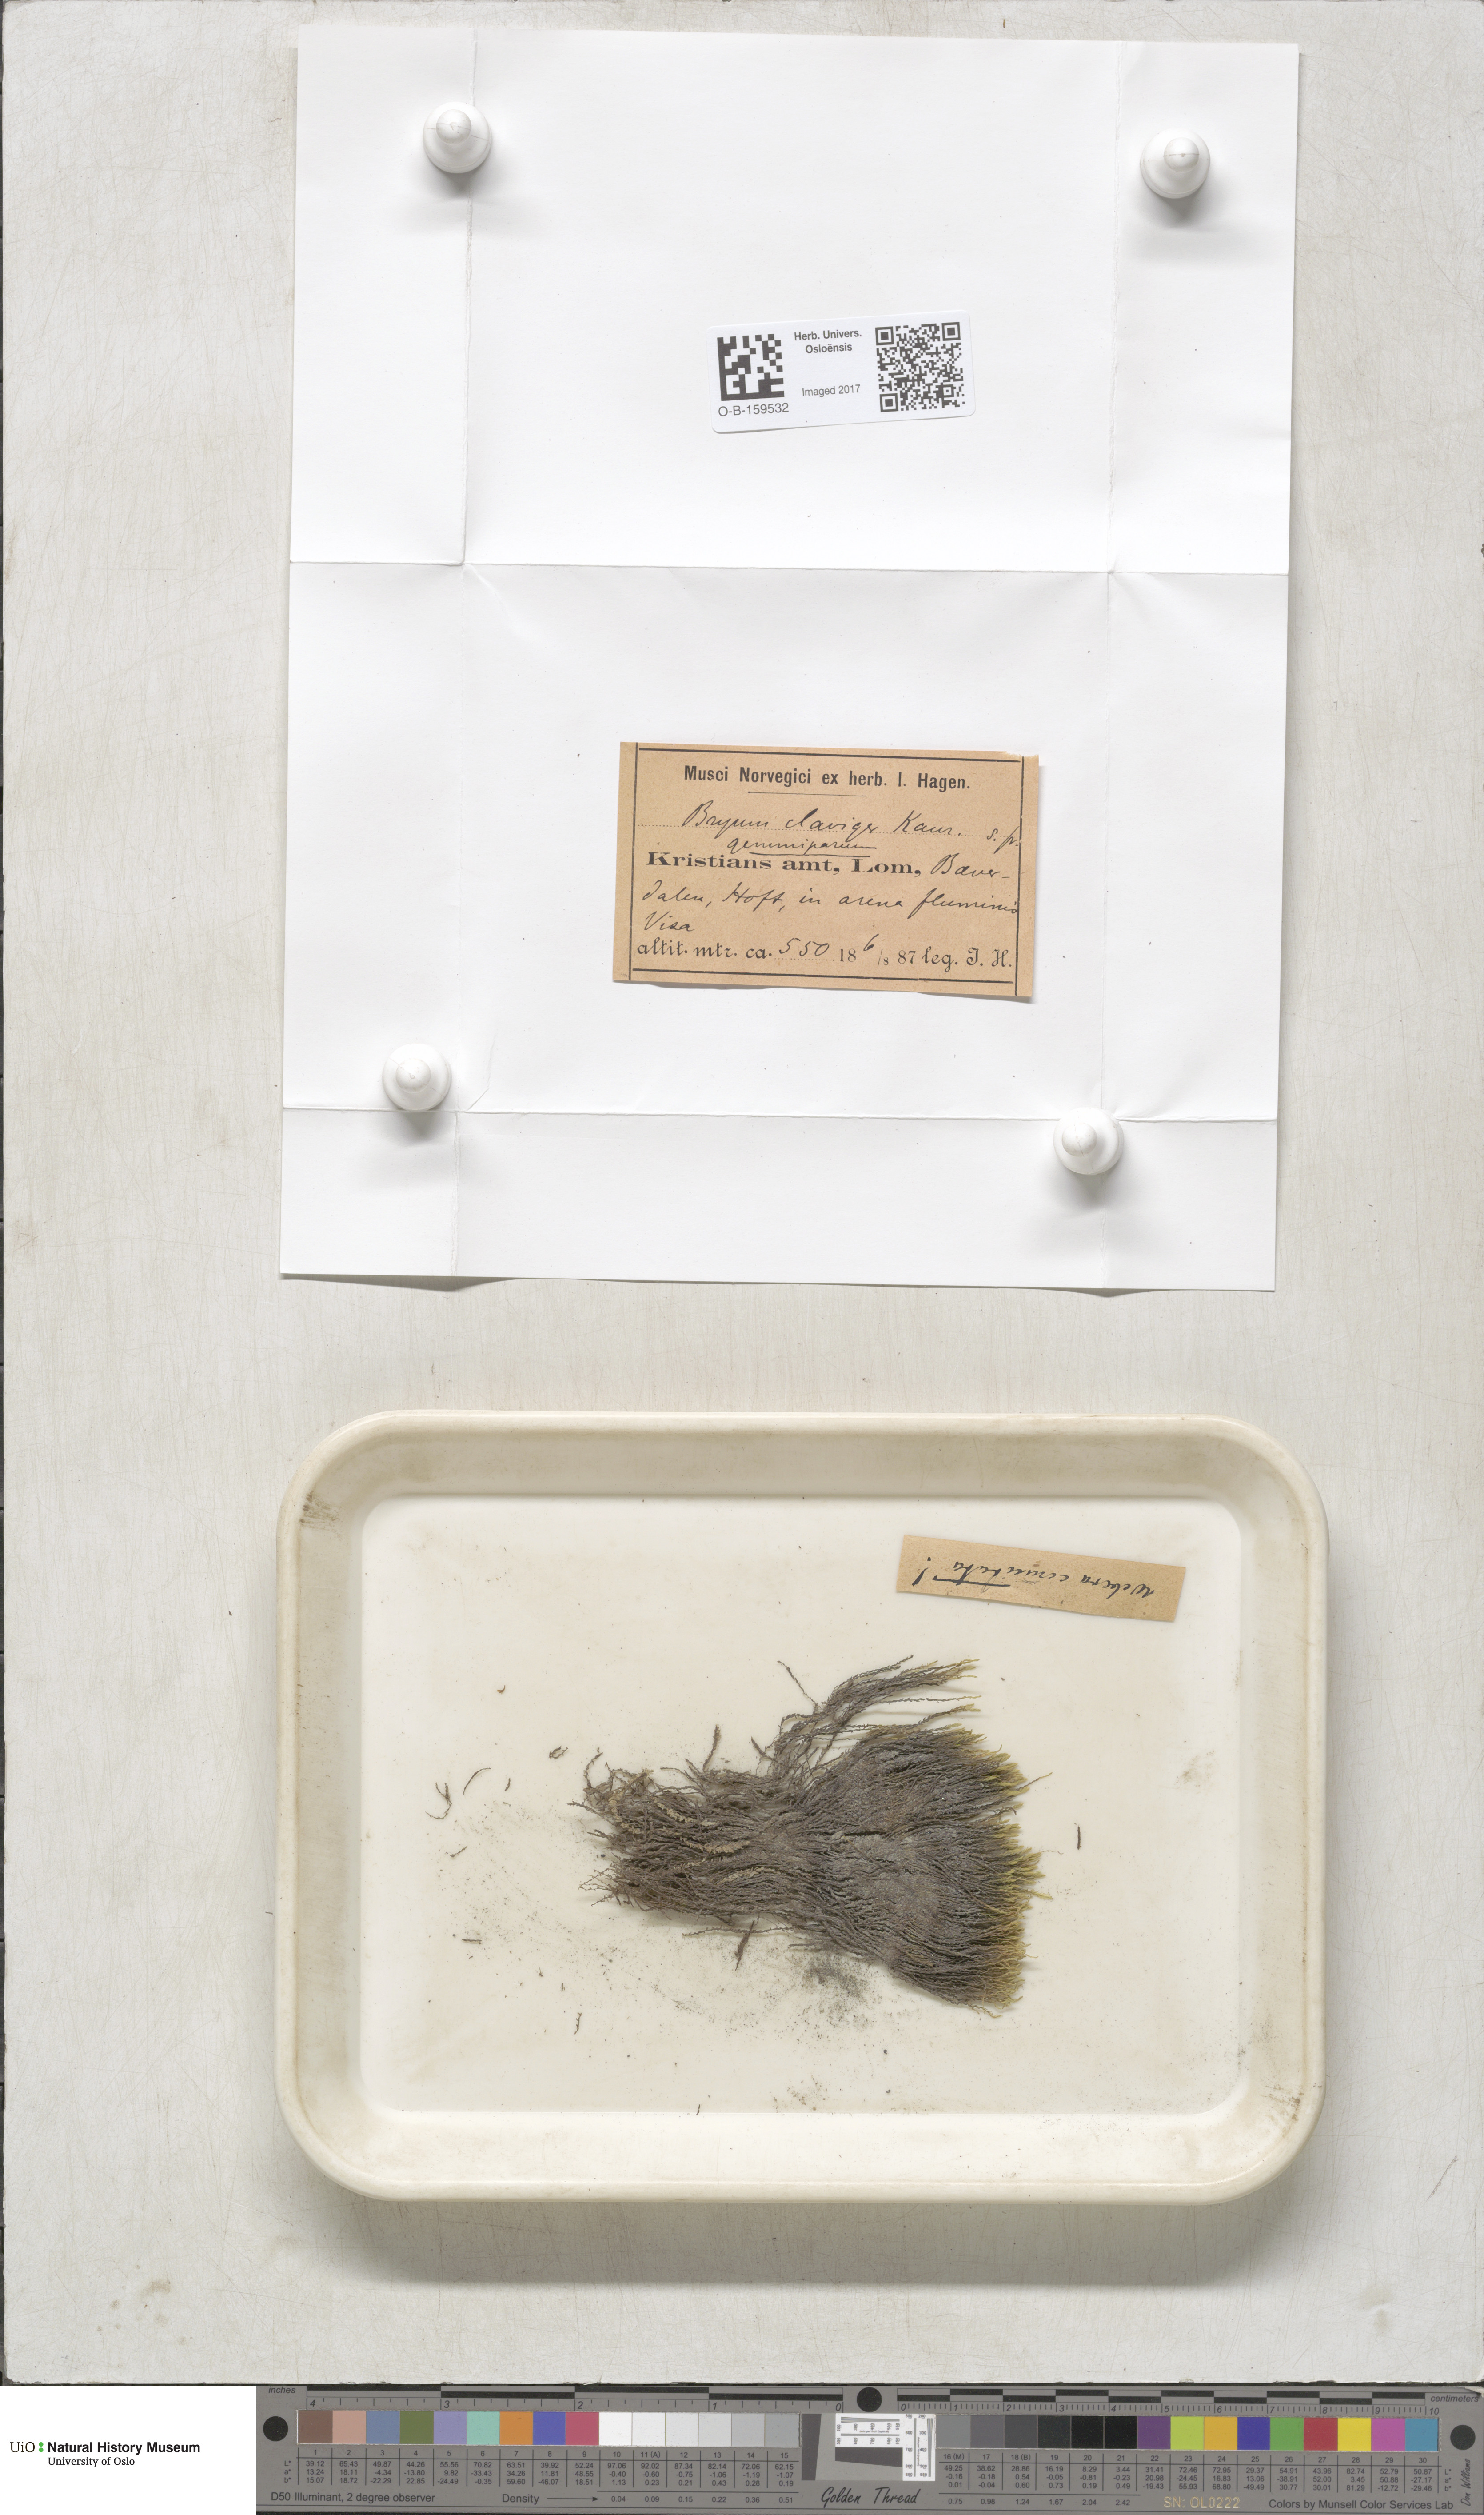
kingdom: Plantae
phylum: Bryophyta
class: Bryopsida
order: Bryales
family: Mniaceae
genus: Pohlia
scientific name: Pohlia drummondii
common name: Drummond's nodding moss
